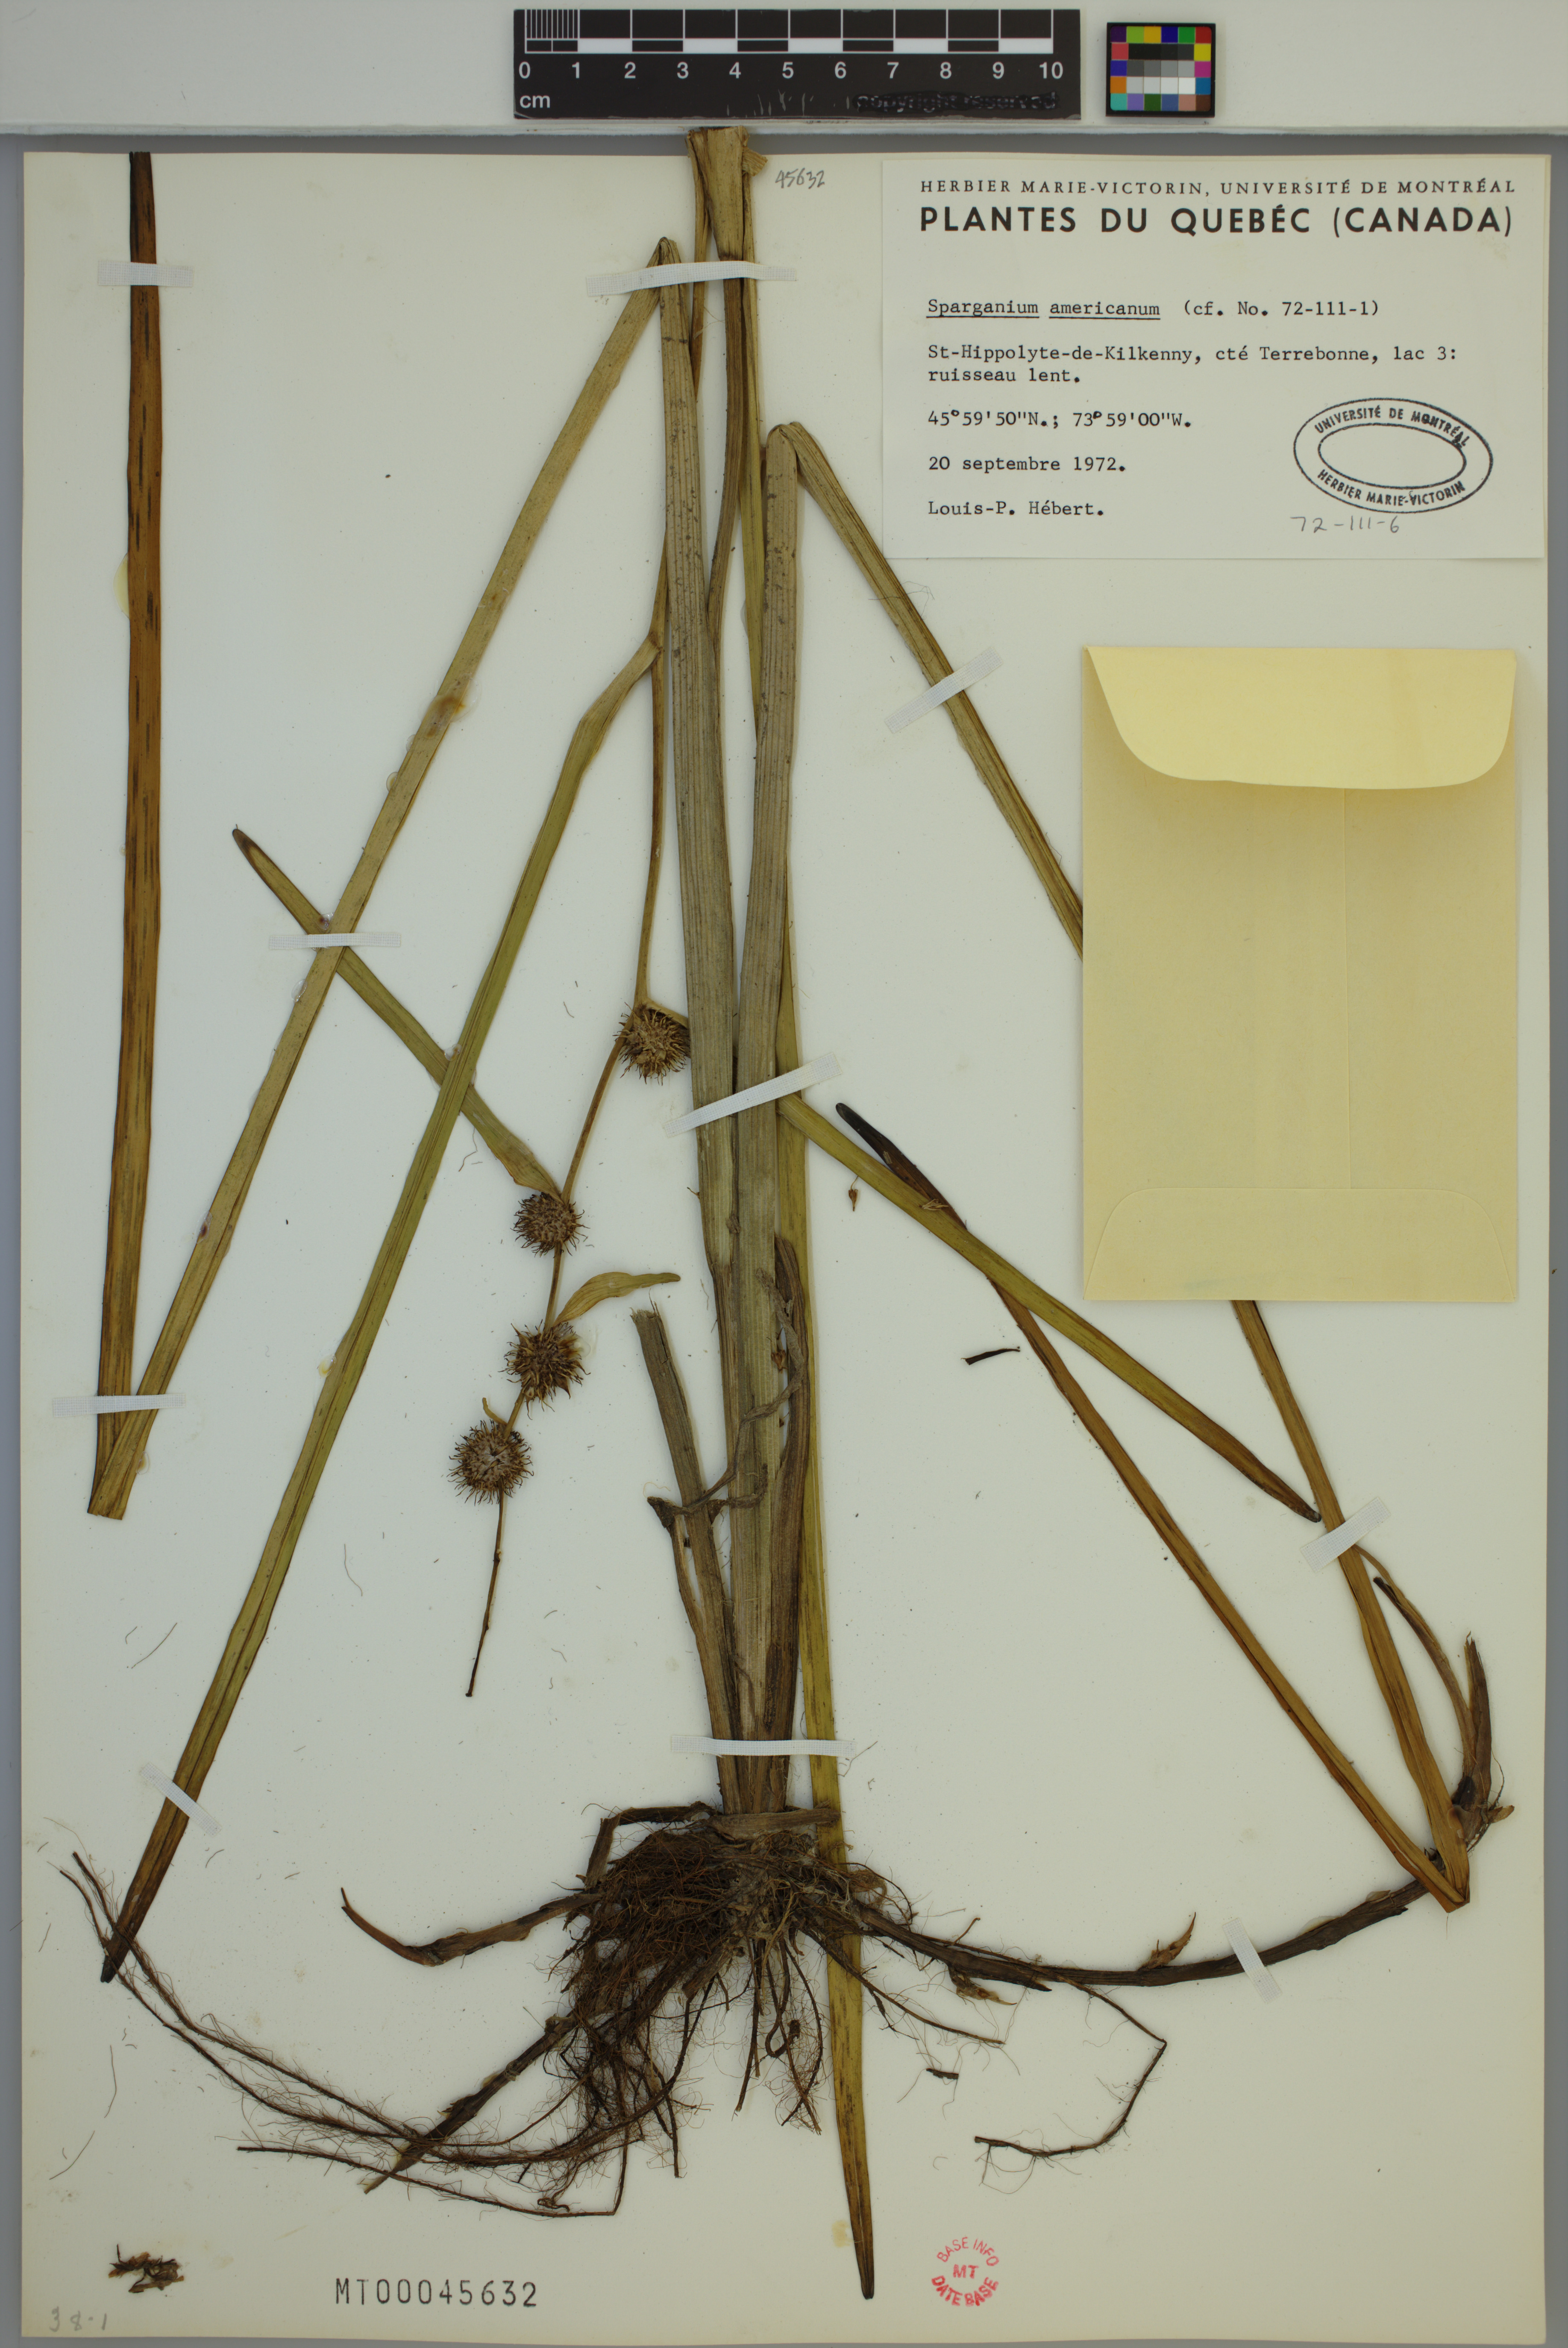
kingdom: Plantae
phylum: Tracheophyta
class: Liliopsida
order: Poales
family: Typhaceae
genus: Sparganium
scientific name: Sparganium americanum
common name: American burreed
